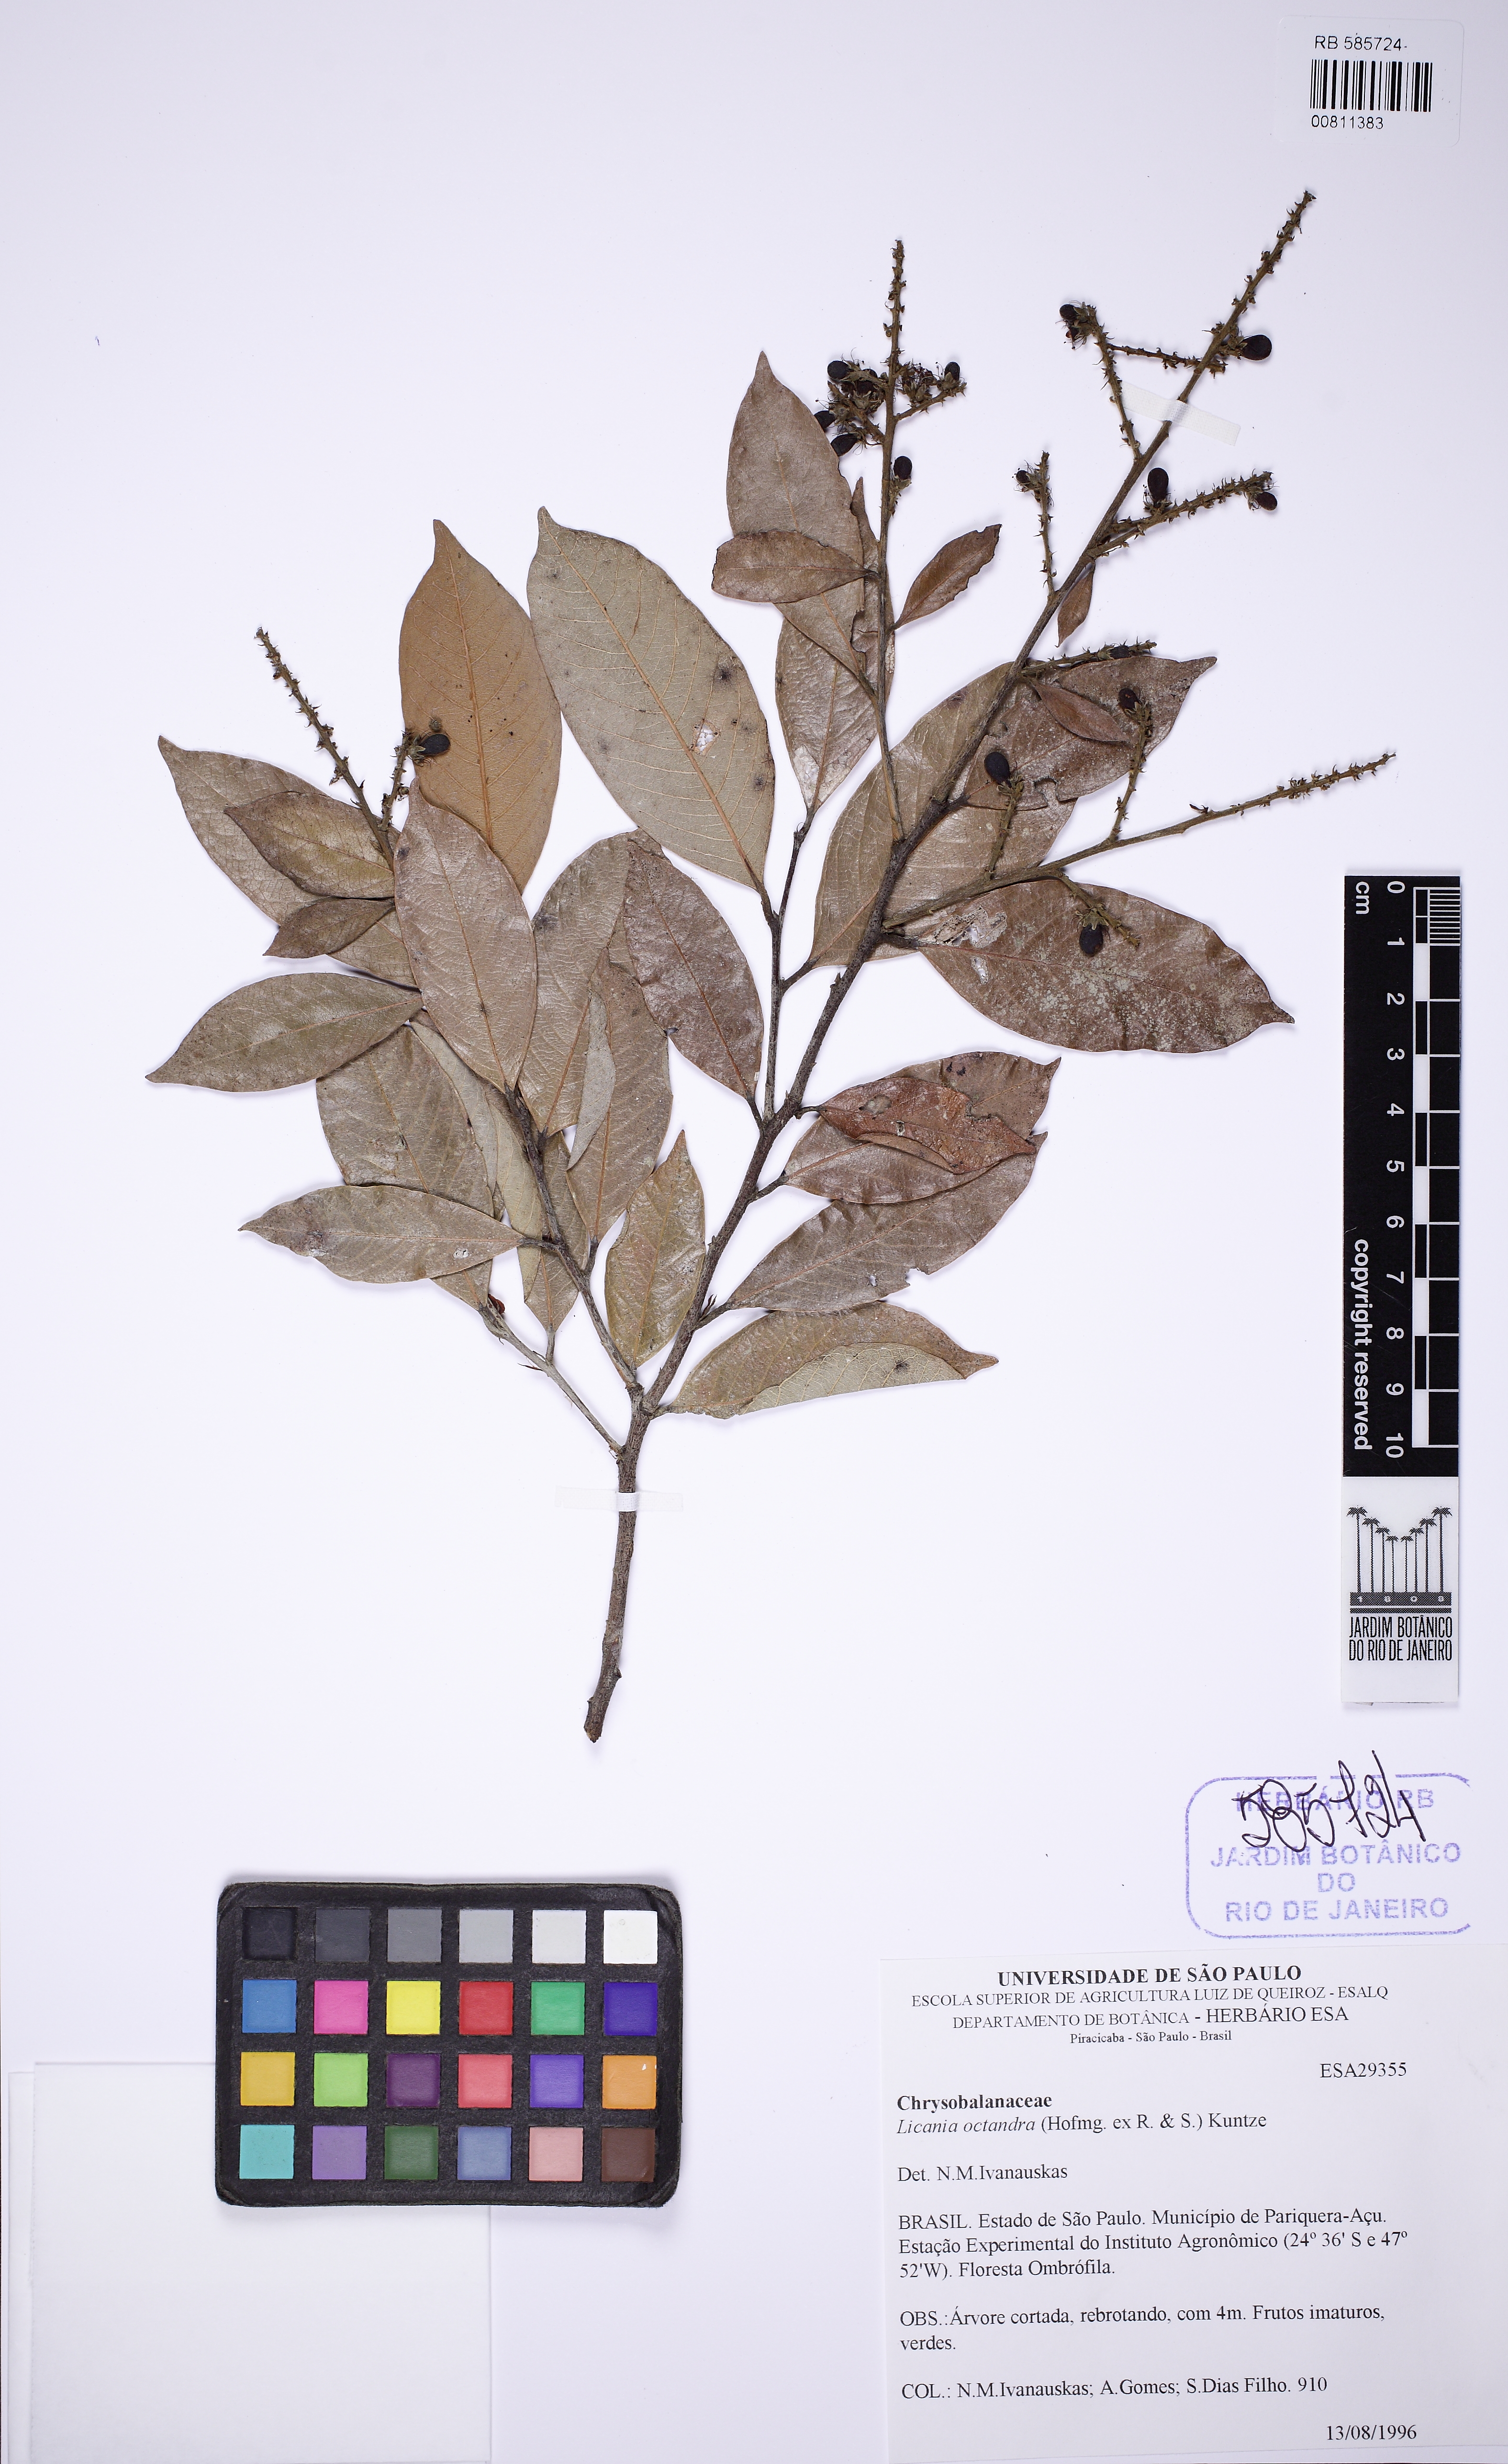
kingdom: Plantae
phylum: Tracheophyta
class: Magnoliopsida
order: Malpighiales
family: Chrysobalanaceae
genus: Leptobalanus
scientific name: Leptobalanus octandrus
